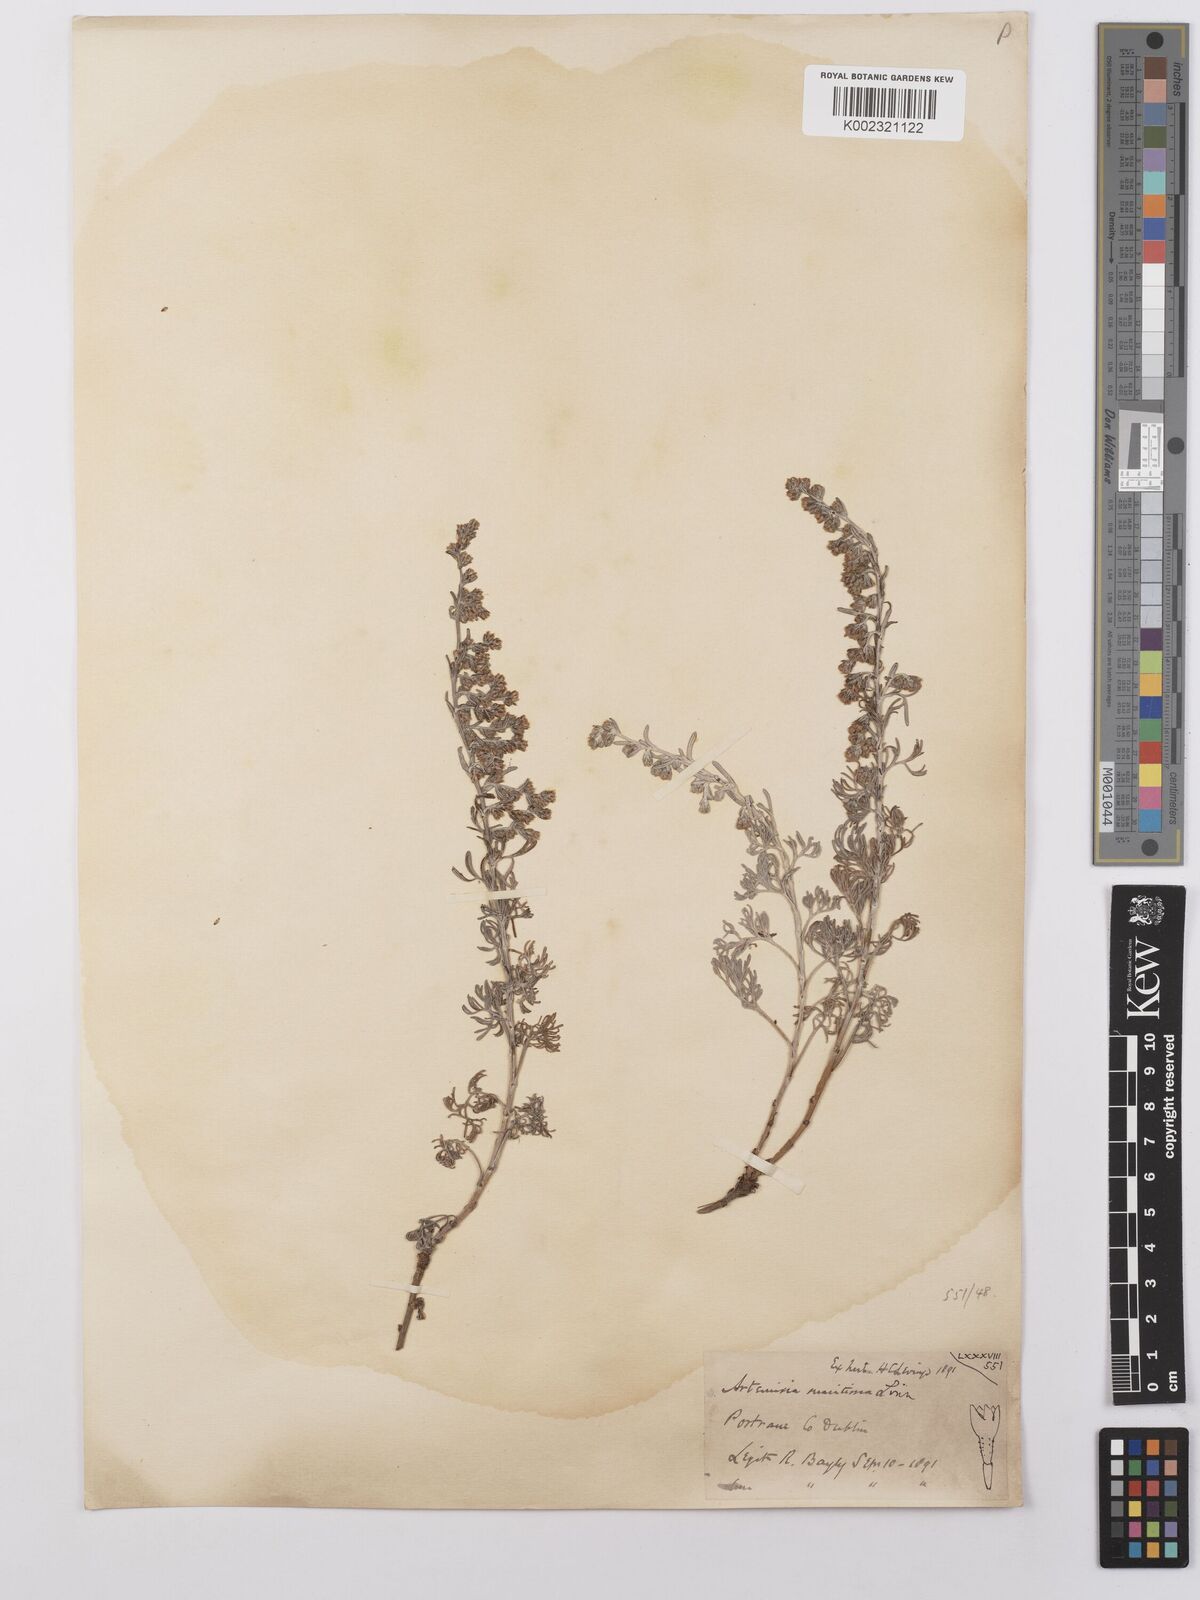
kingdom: Plantae
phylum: Tracheophyta
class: Magnoliopsida
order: Asterales
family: Asteraceae
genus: Artemisia
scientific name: Artemisia maritima
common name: Wormseed
